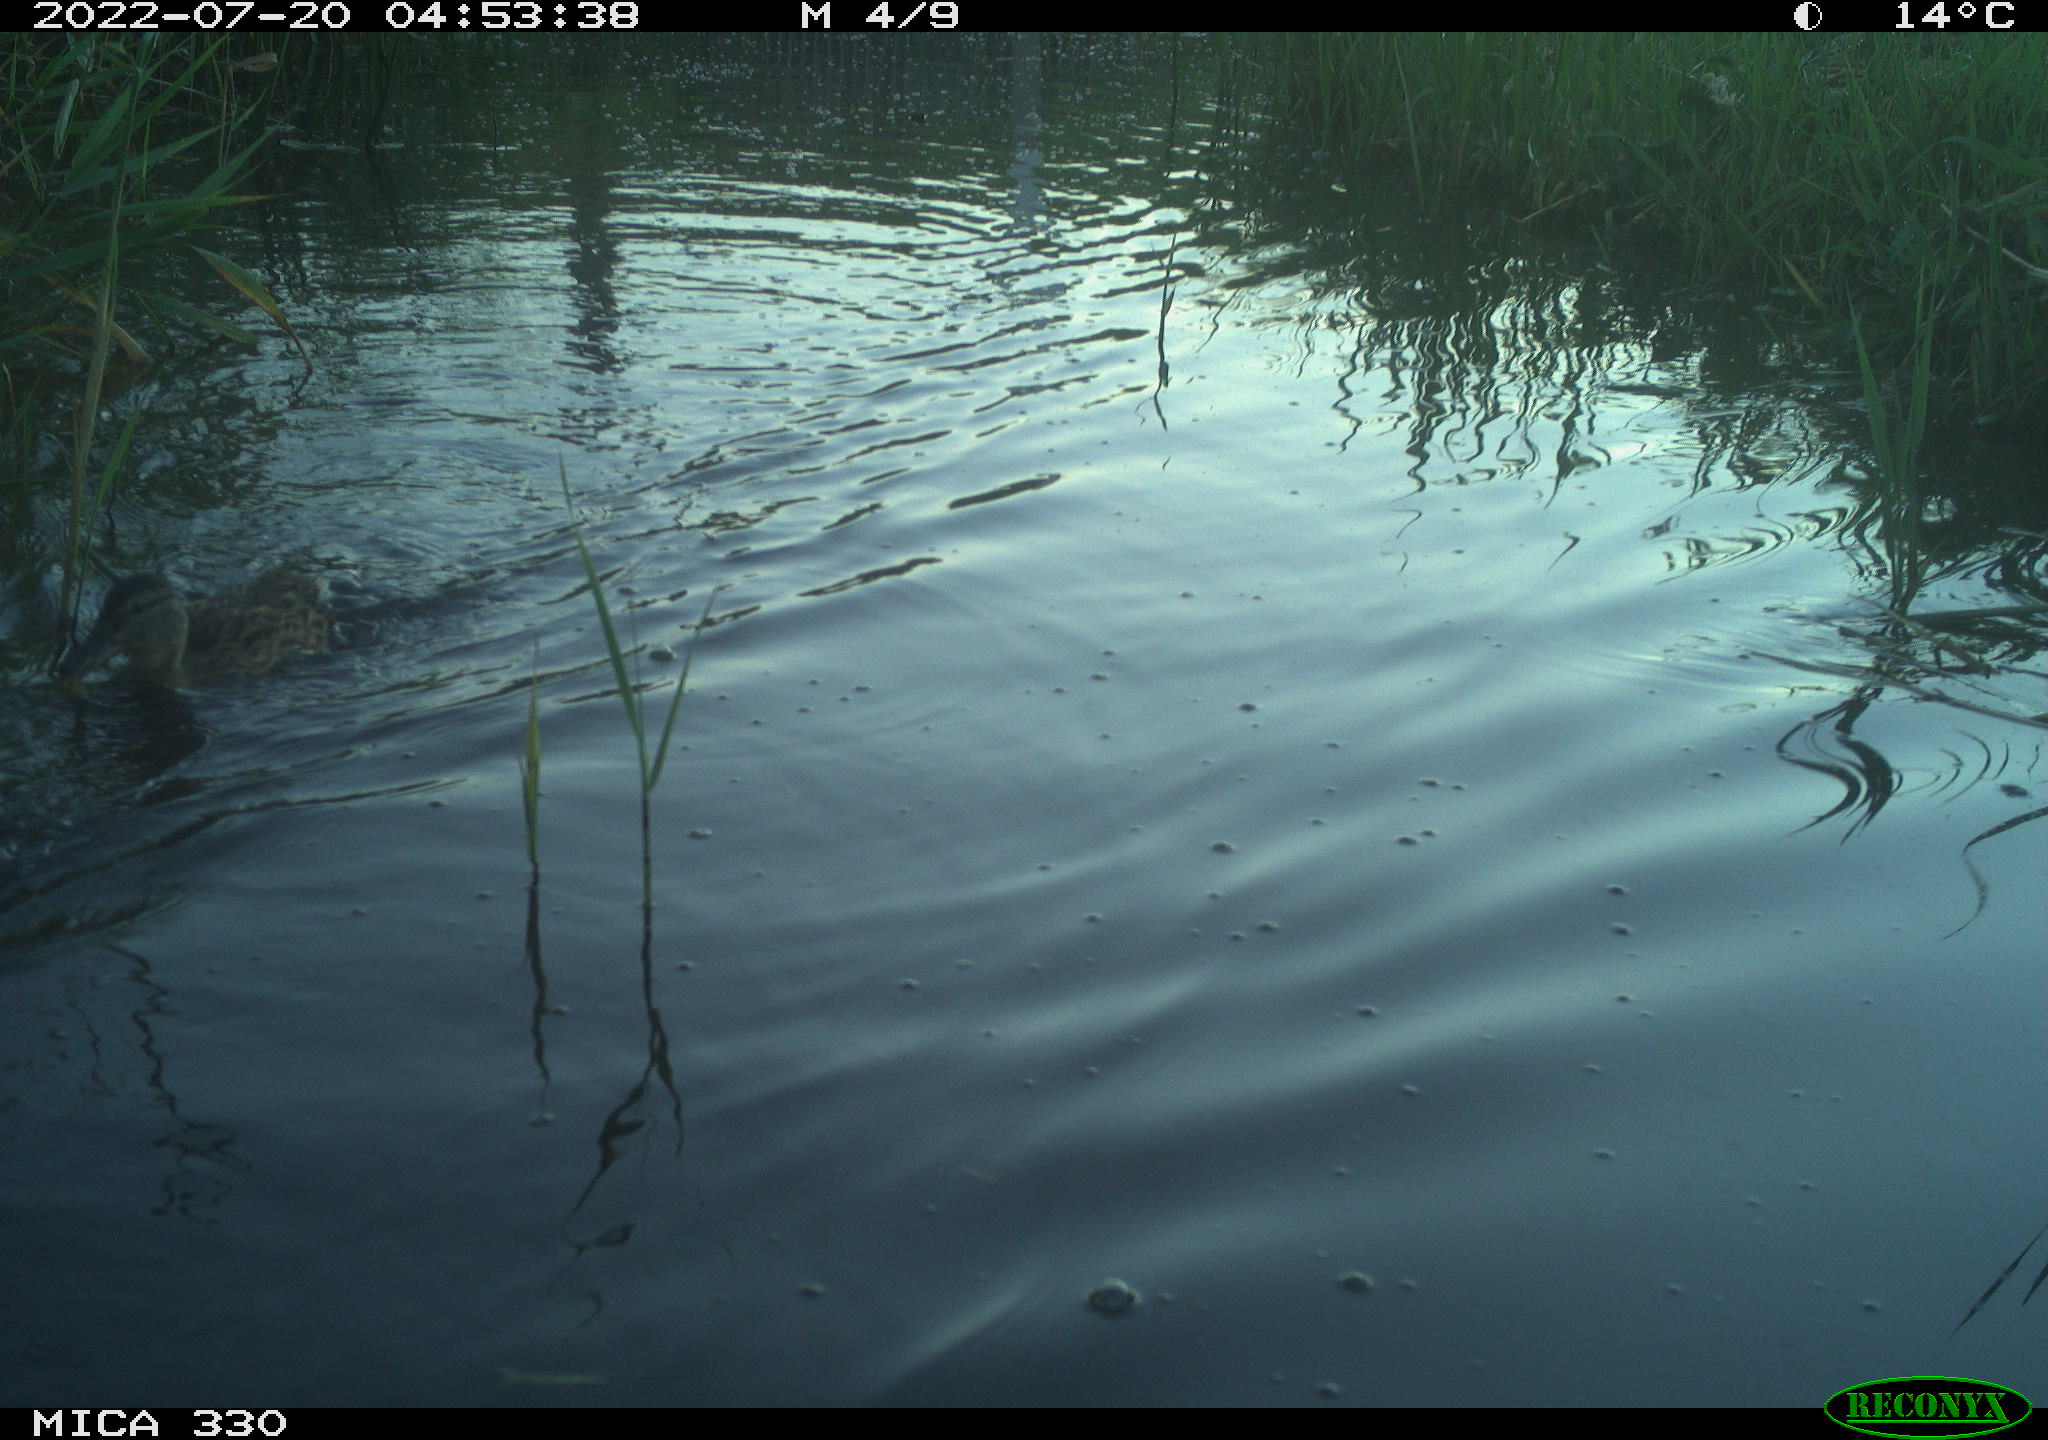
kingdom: Animalia
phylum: Chordata
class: Aves
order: Anseriformes
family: Anatidae
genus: Anas
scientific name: Anas platyrhynchos
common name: Mallard
